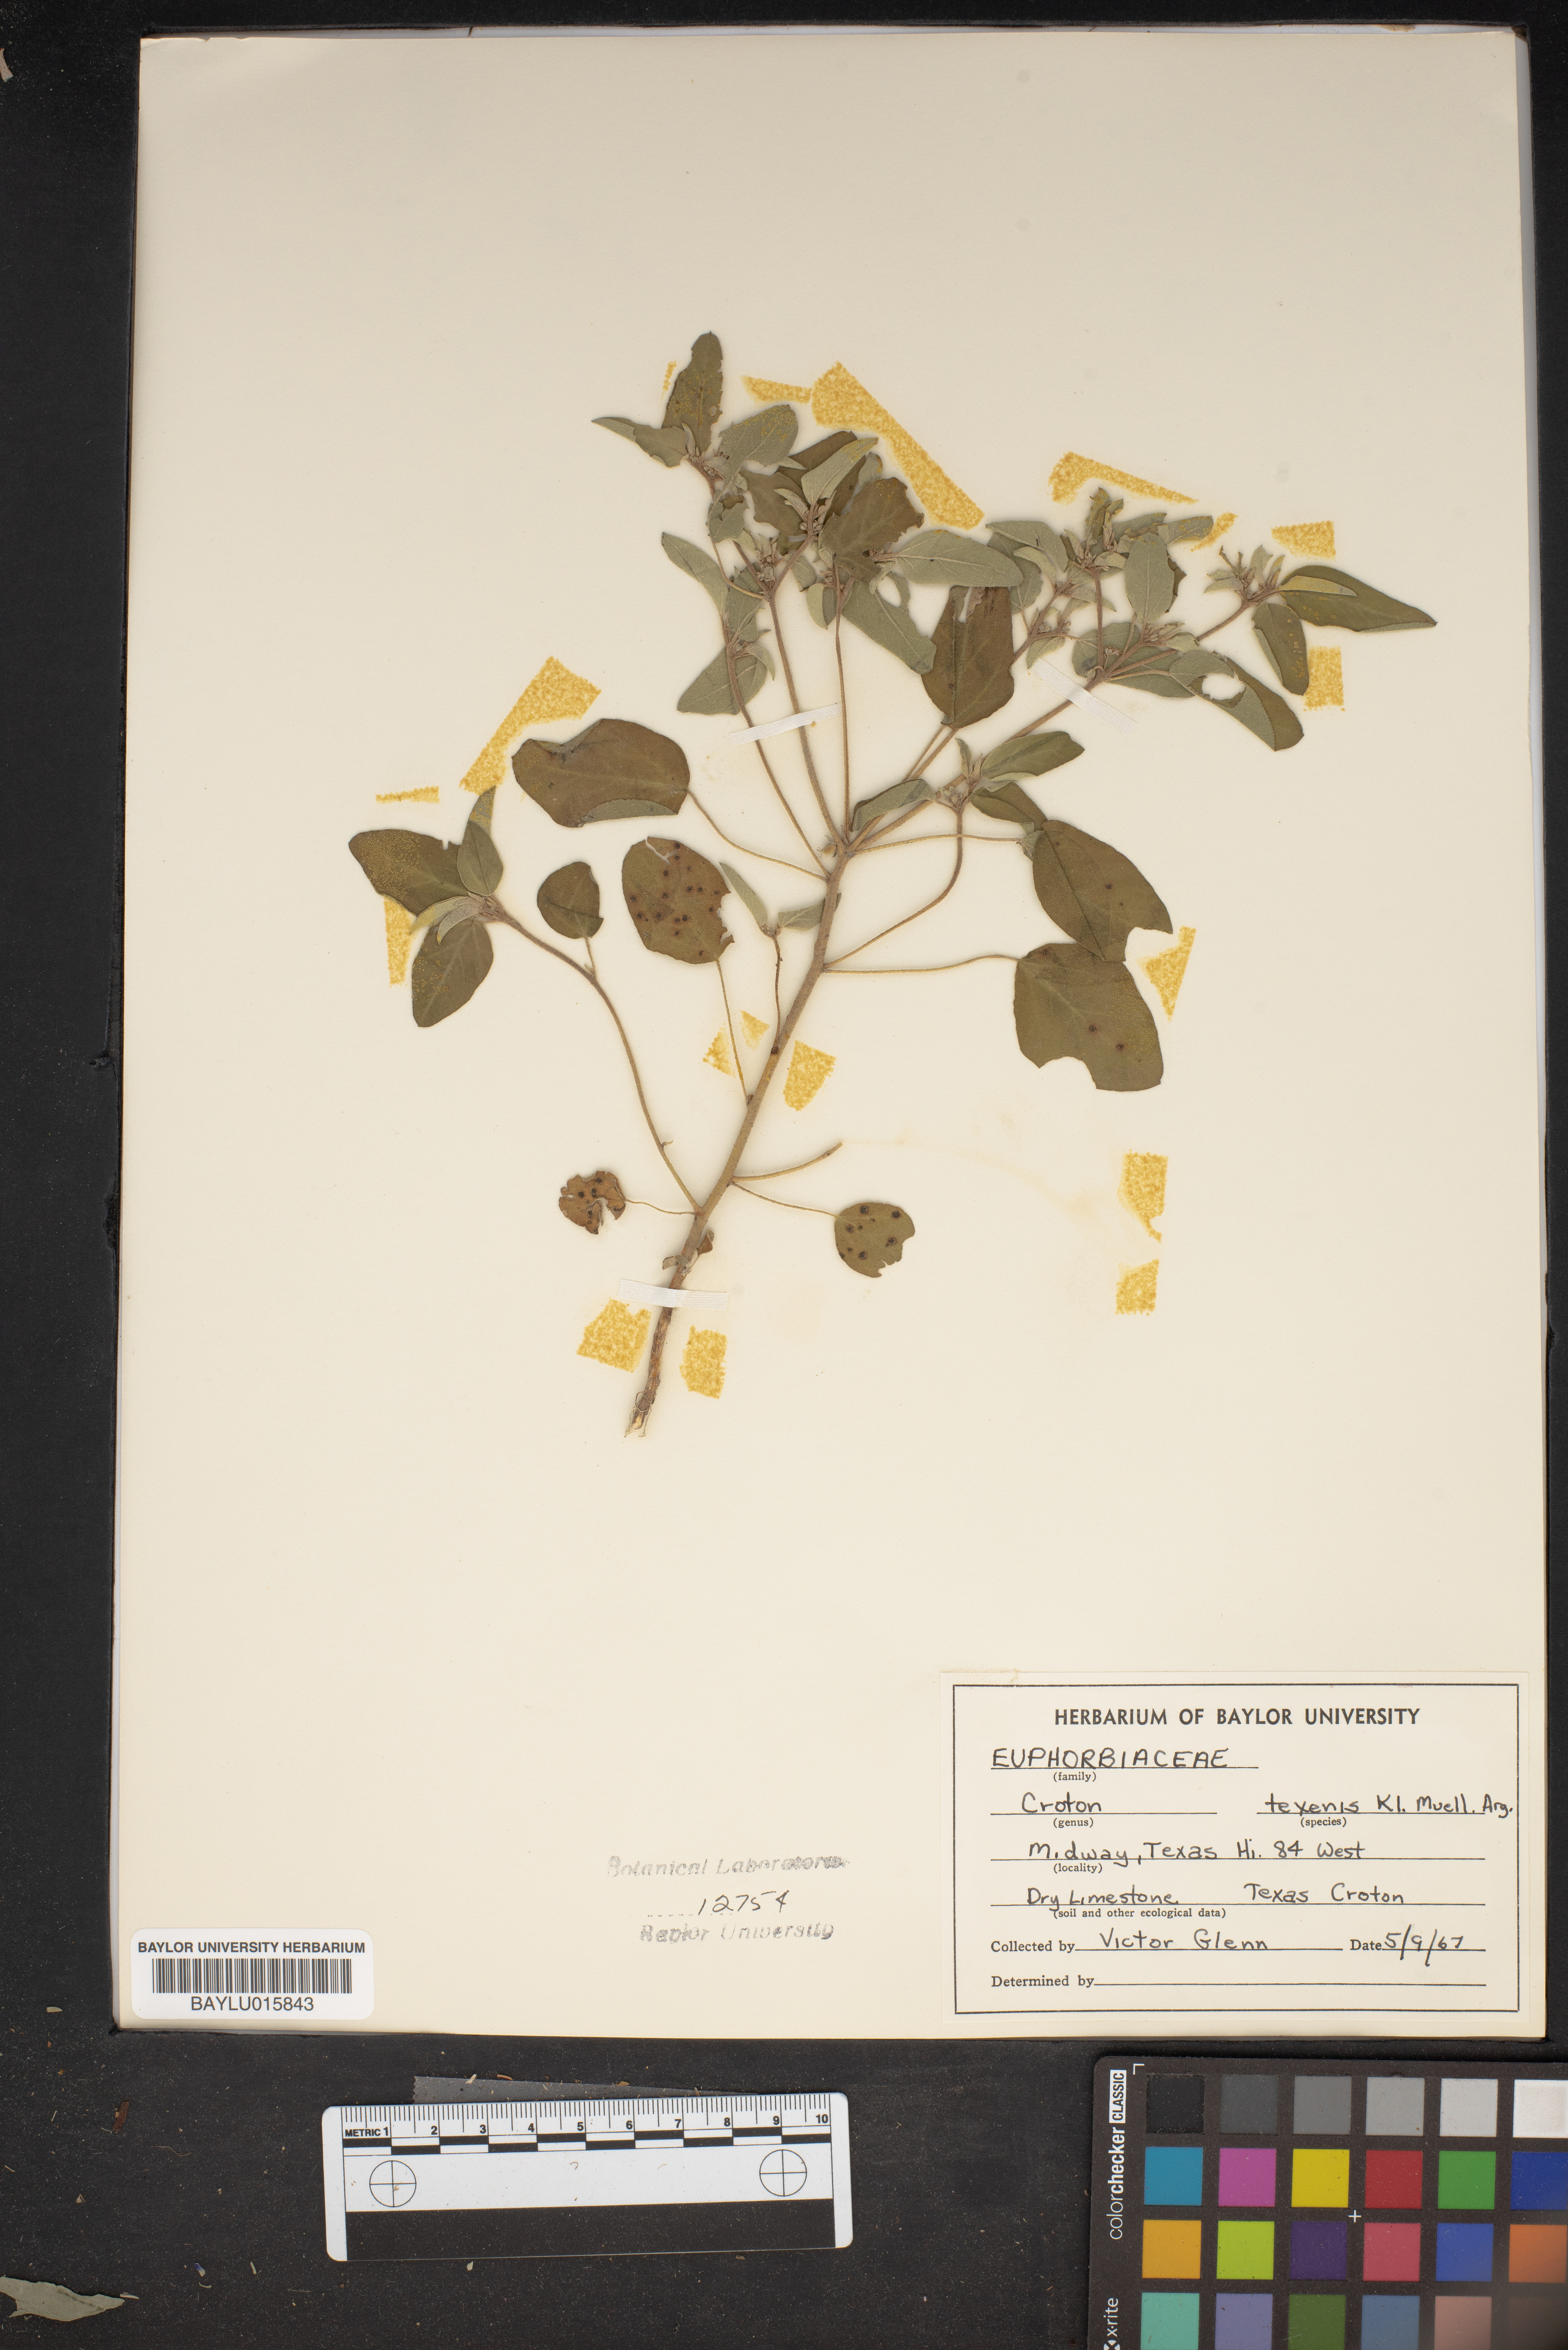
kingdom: Plantae
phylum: Tracheophyta
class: Magnoliopsida
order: Malpighiales
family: Euphorbiaceae
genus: Croton
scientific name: Croton texensis
